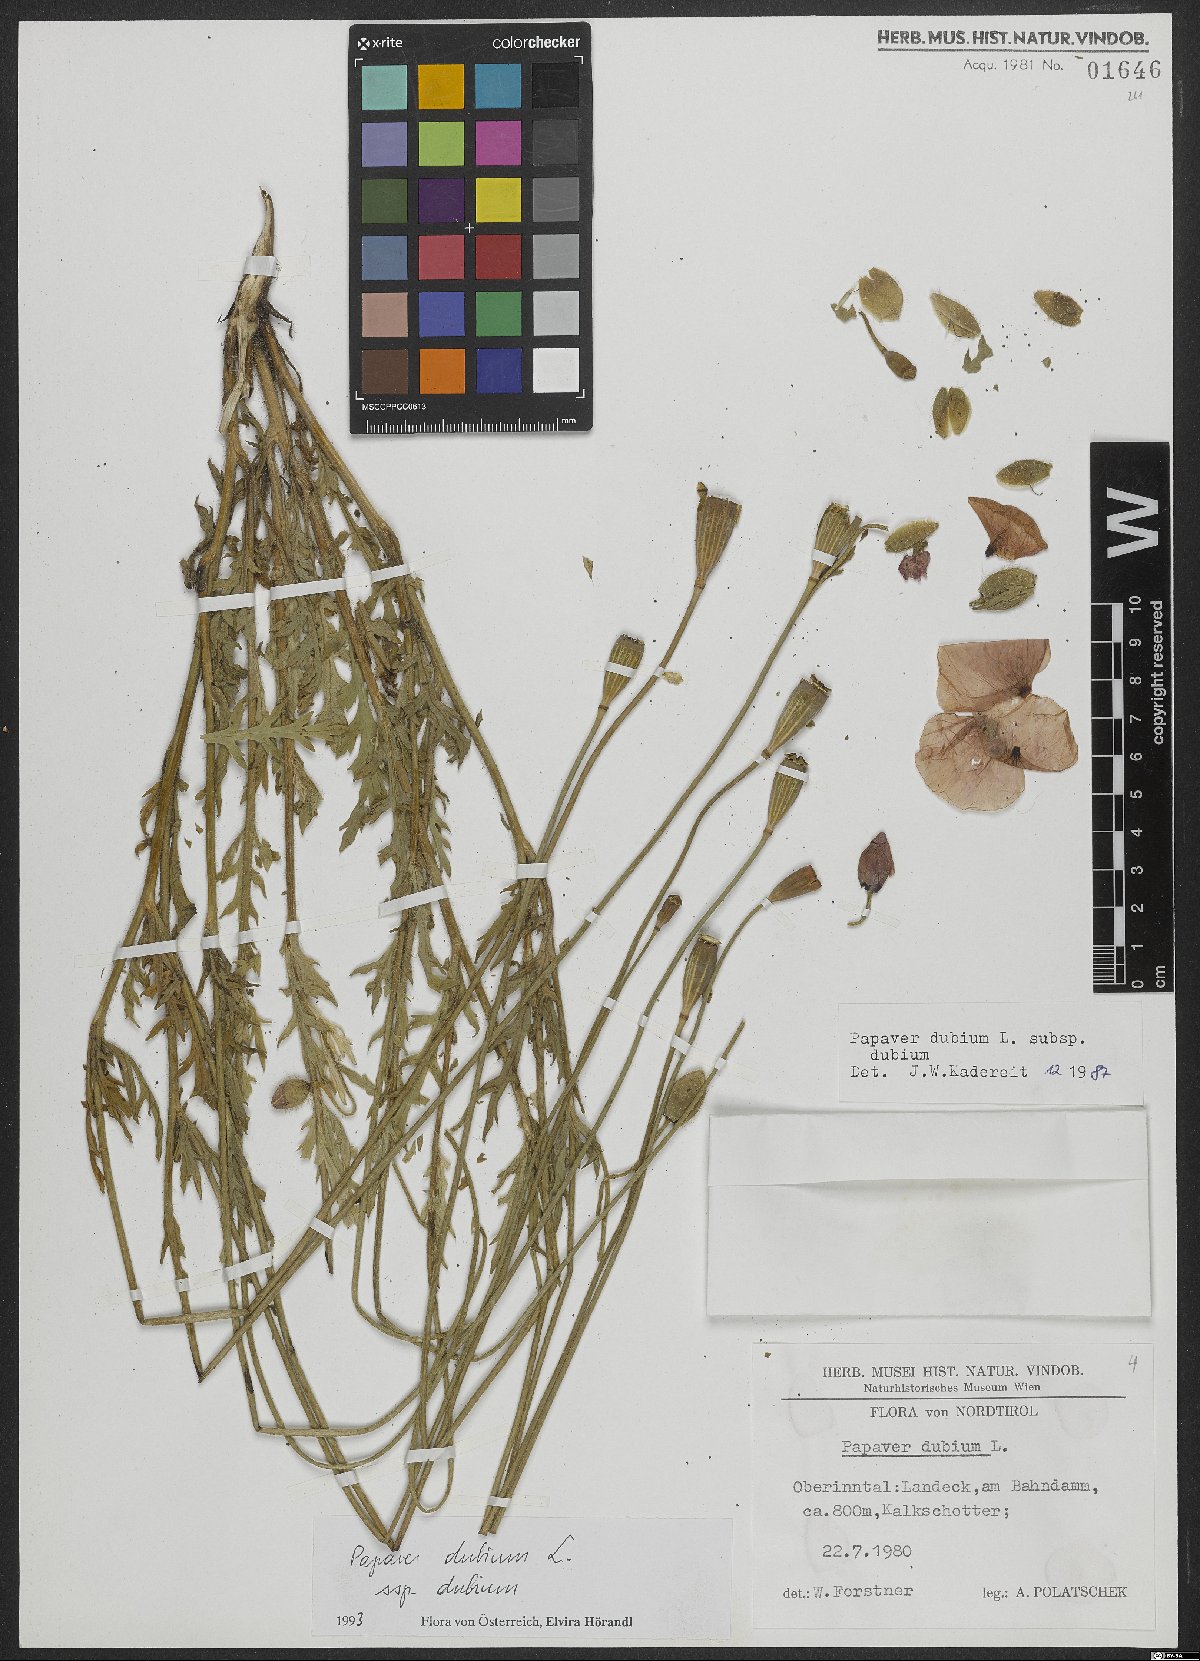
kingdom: Plantae
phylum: Tracheophyta
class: Magnoliopsida
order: Ranunculales
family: Papaveraceae
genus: Papaver
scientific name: Papaver dubium
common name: Long-headed poppy
